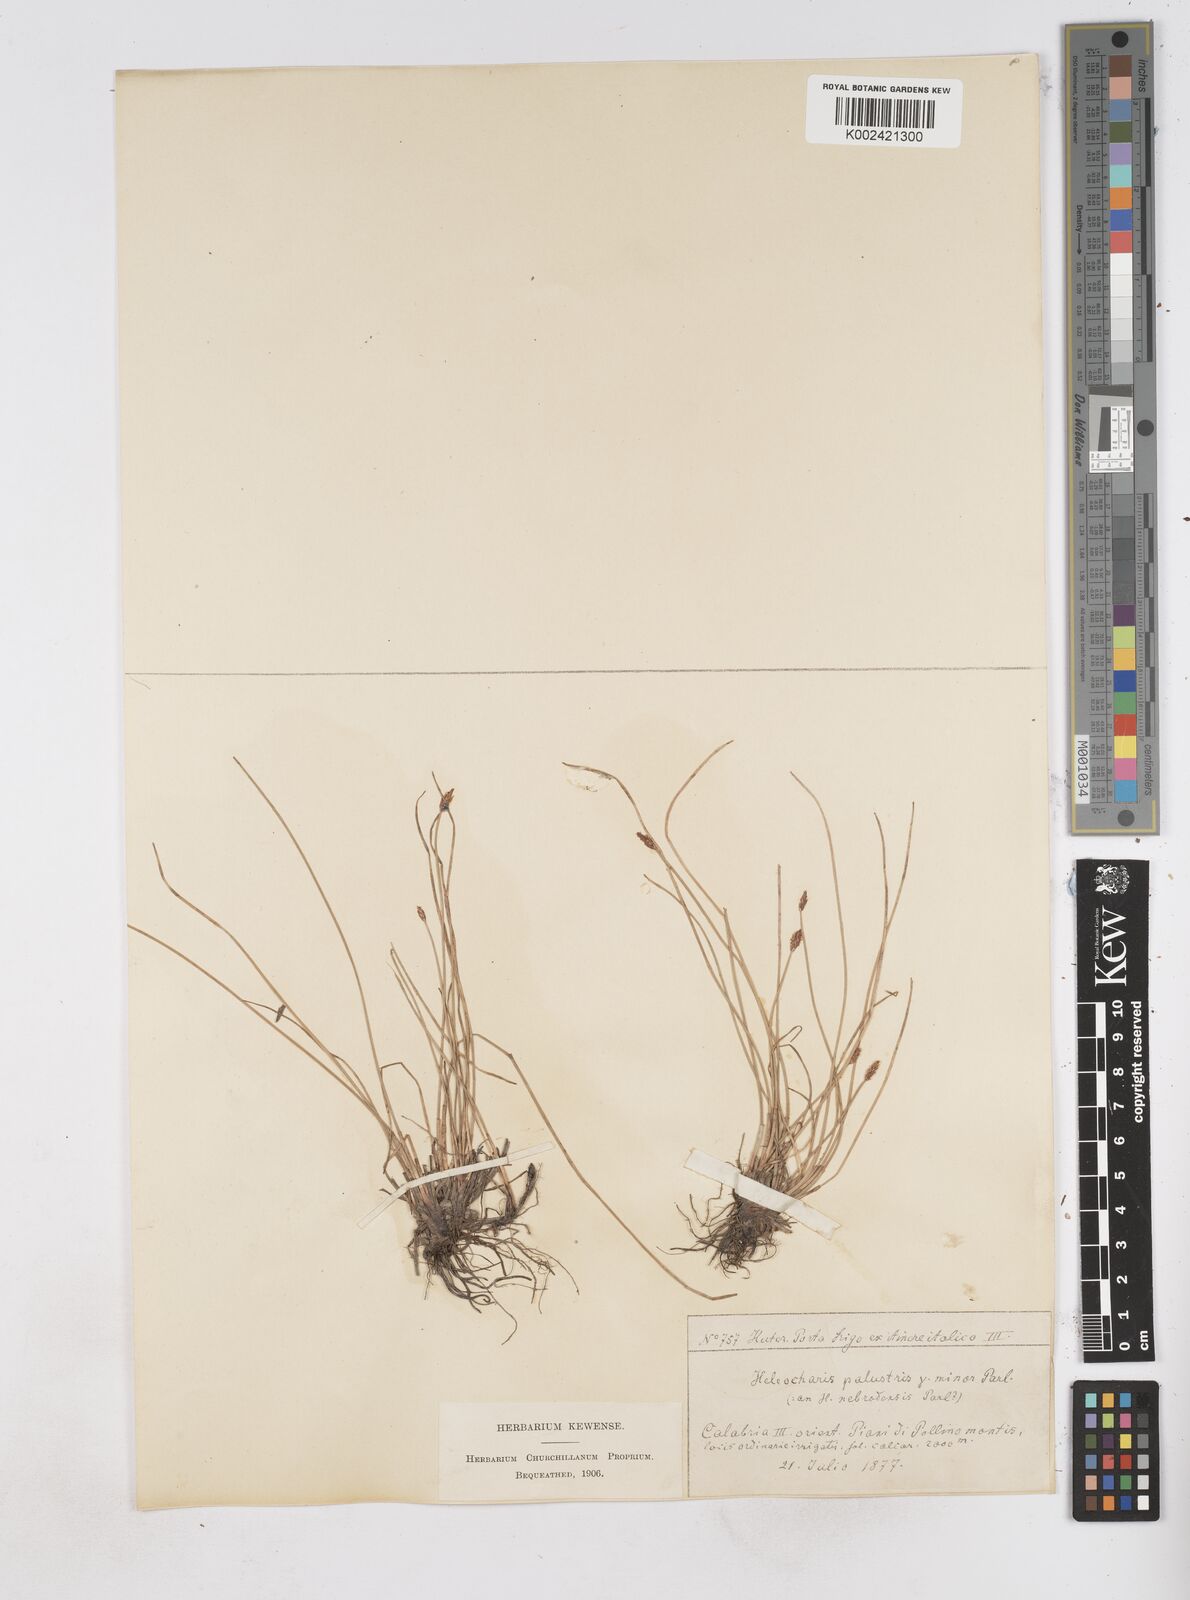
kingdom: Plantae
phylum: Tracheophyta
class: Liliopsida
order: Poales
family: Cyperaceae
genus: Eleocharis
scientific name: Eleocharis palustris
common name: Common spike-rush
